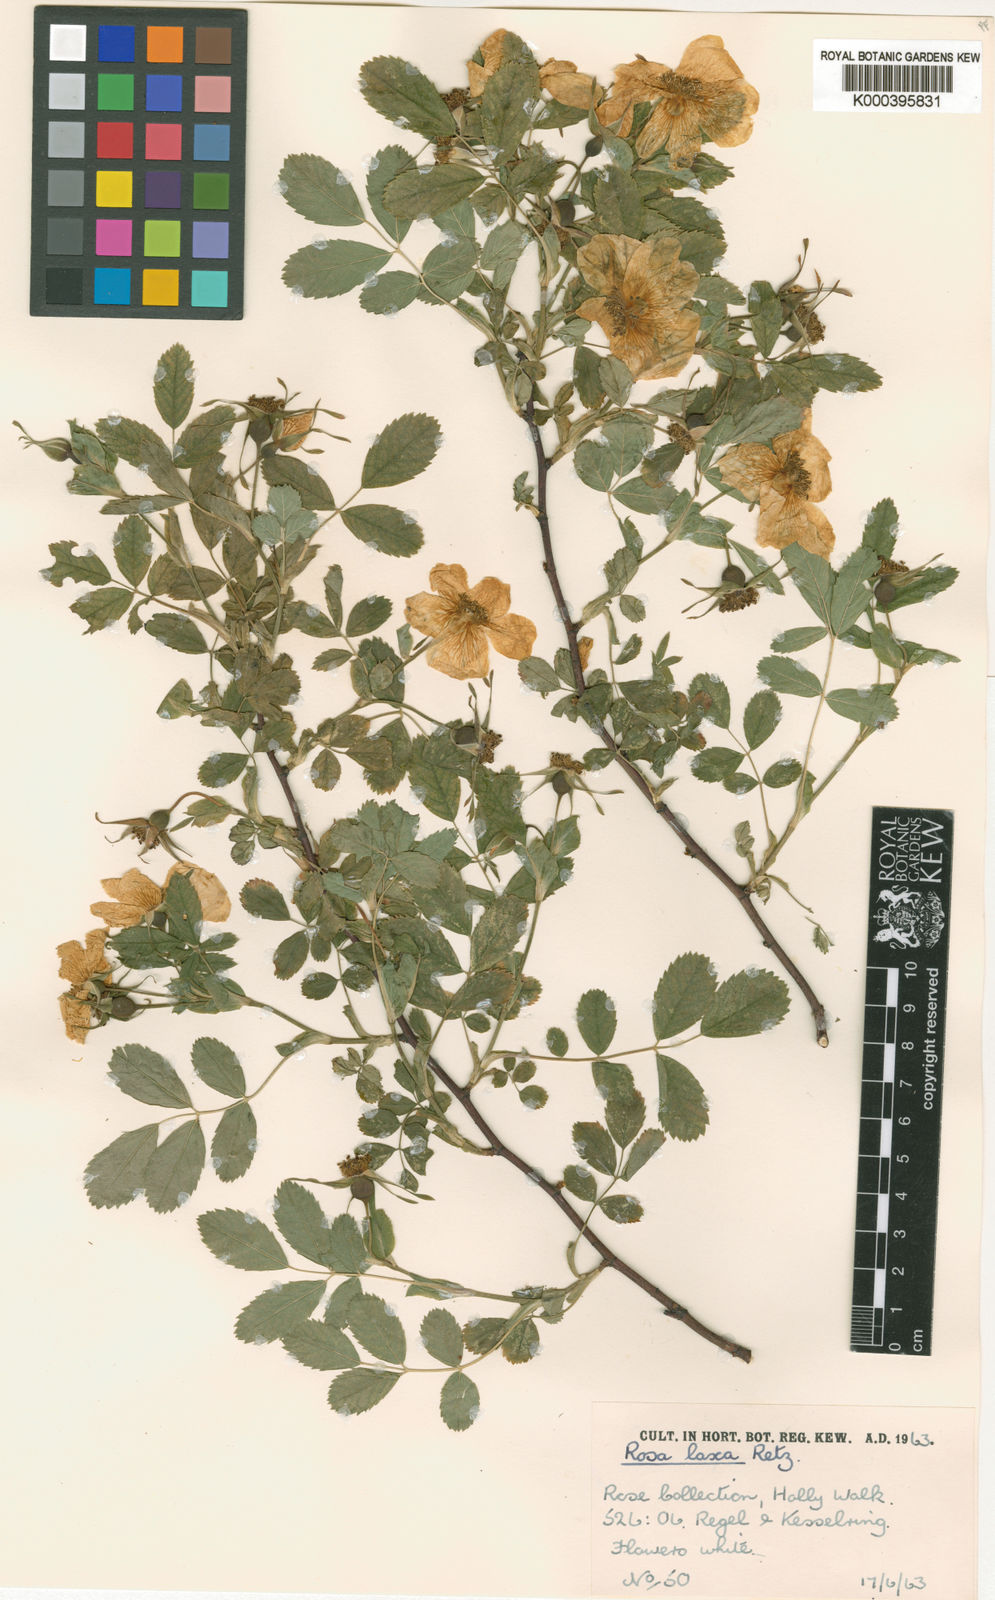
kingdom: Plantae
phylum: Tracheophyta
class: Magnoliopsida
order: Rosales
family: Rosaceae
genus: Rosa
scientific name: Rosa laxa
